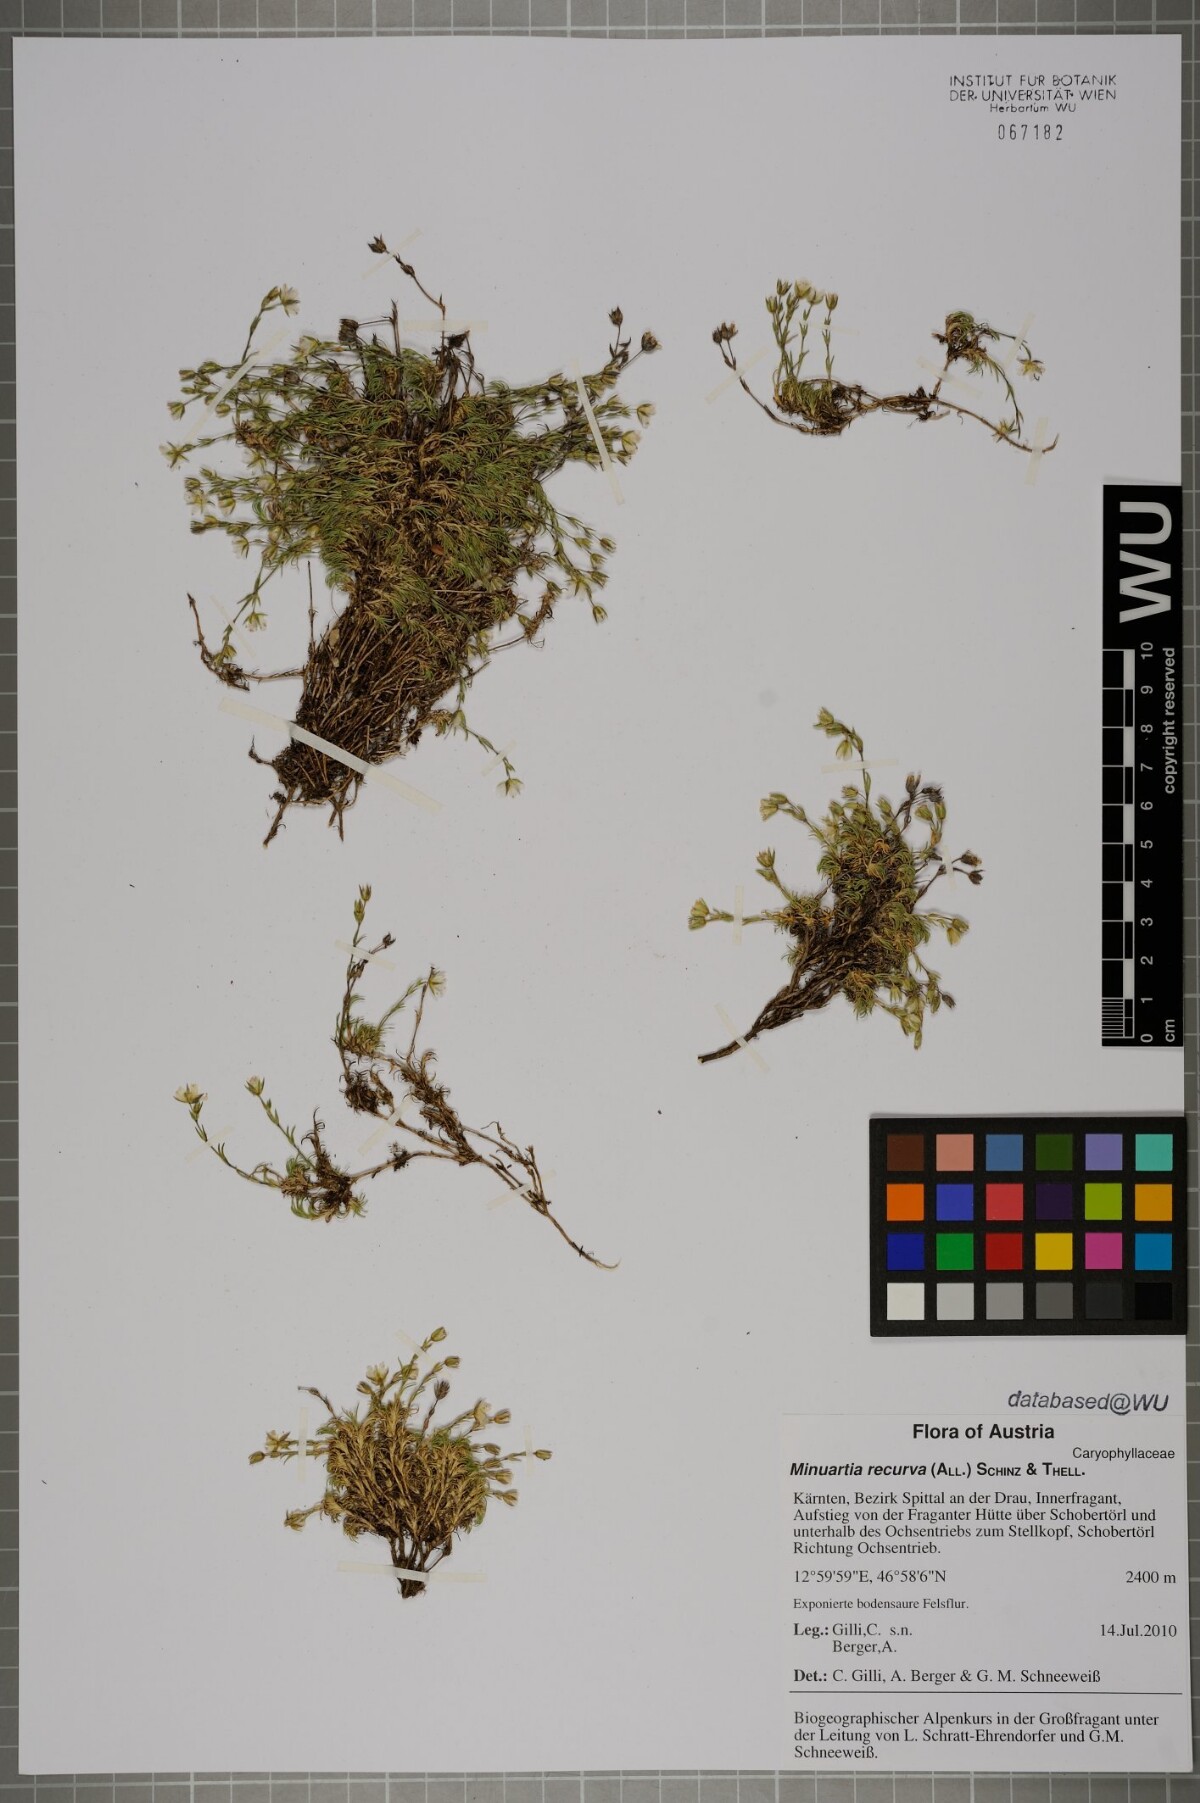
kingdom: Plantae
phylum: Tracheophyta
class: Magnoliopsida
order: Caryophyllales
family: Caryophyllaceae
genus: Minuartia
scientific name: Minuartia recurva
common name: Recurved sandwort
